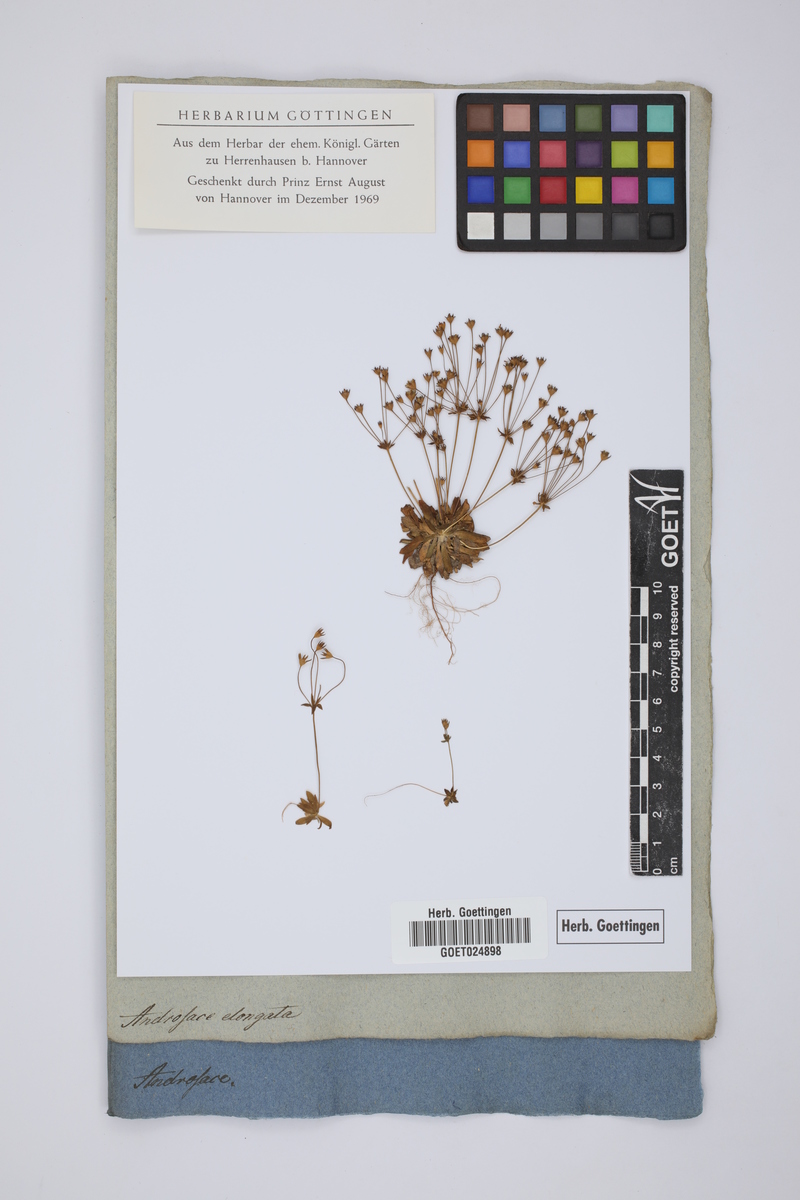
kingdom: Plantae
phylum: Tracheophyta
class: Magnoliopsida
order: Ericales
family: Primulaceae
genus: Androsace
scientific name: Androsace elongata
